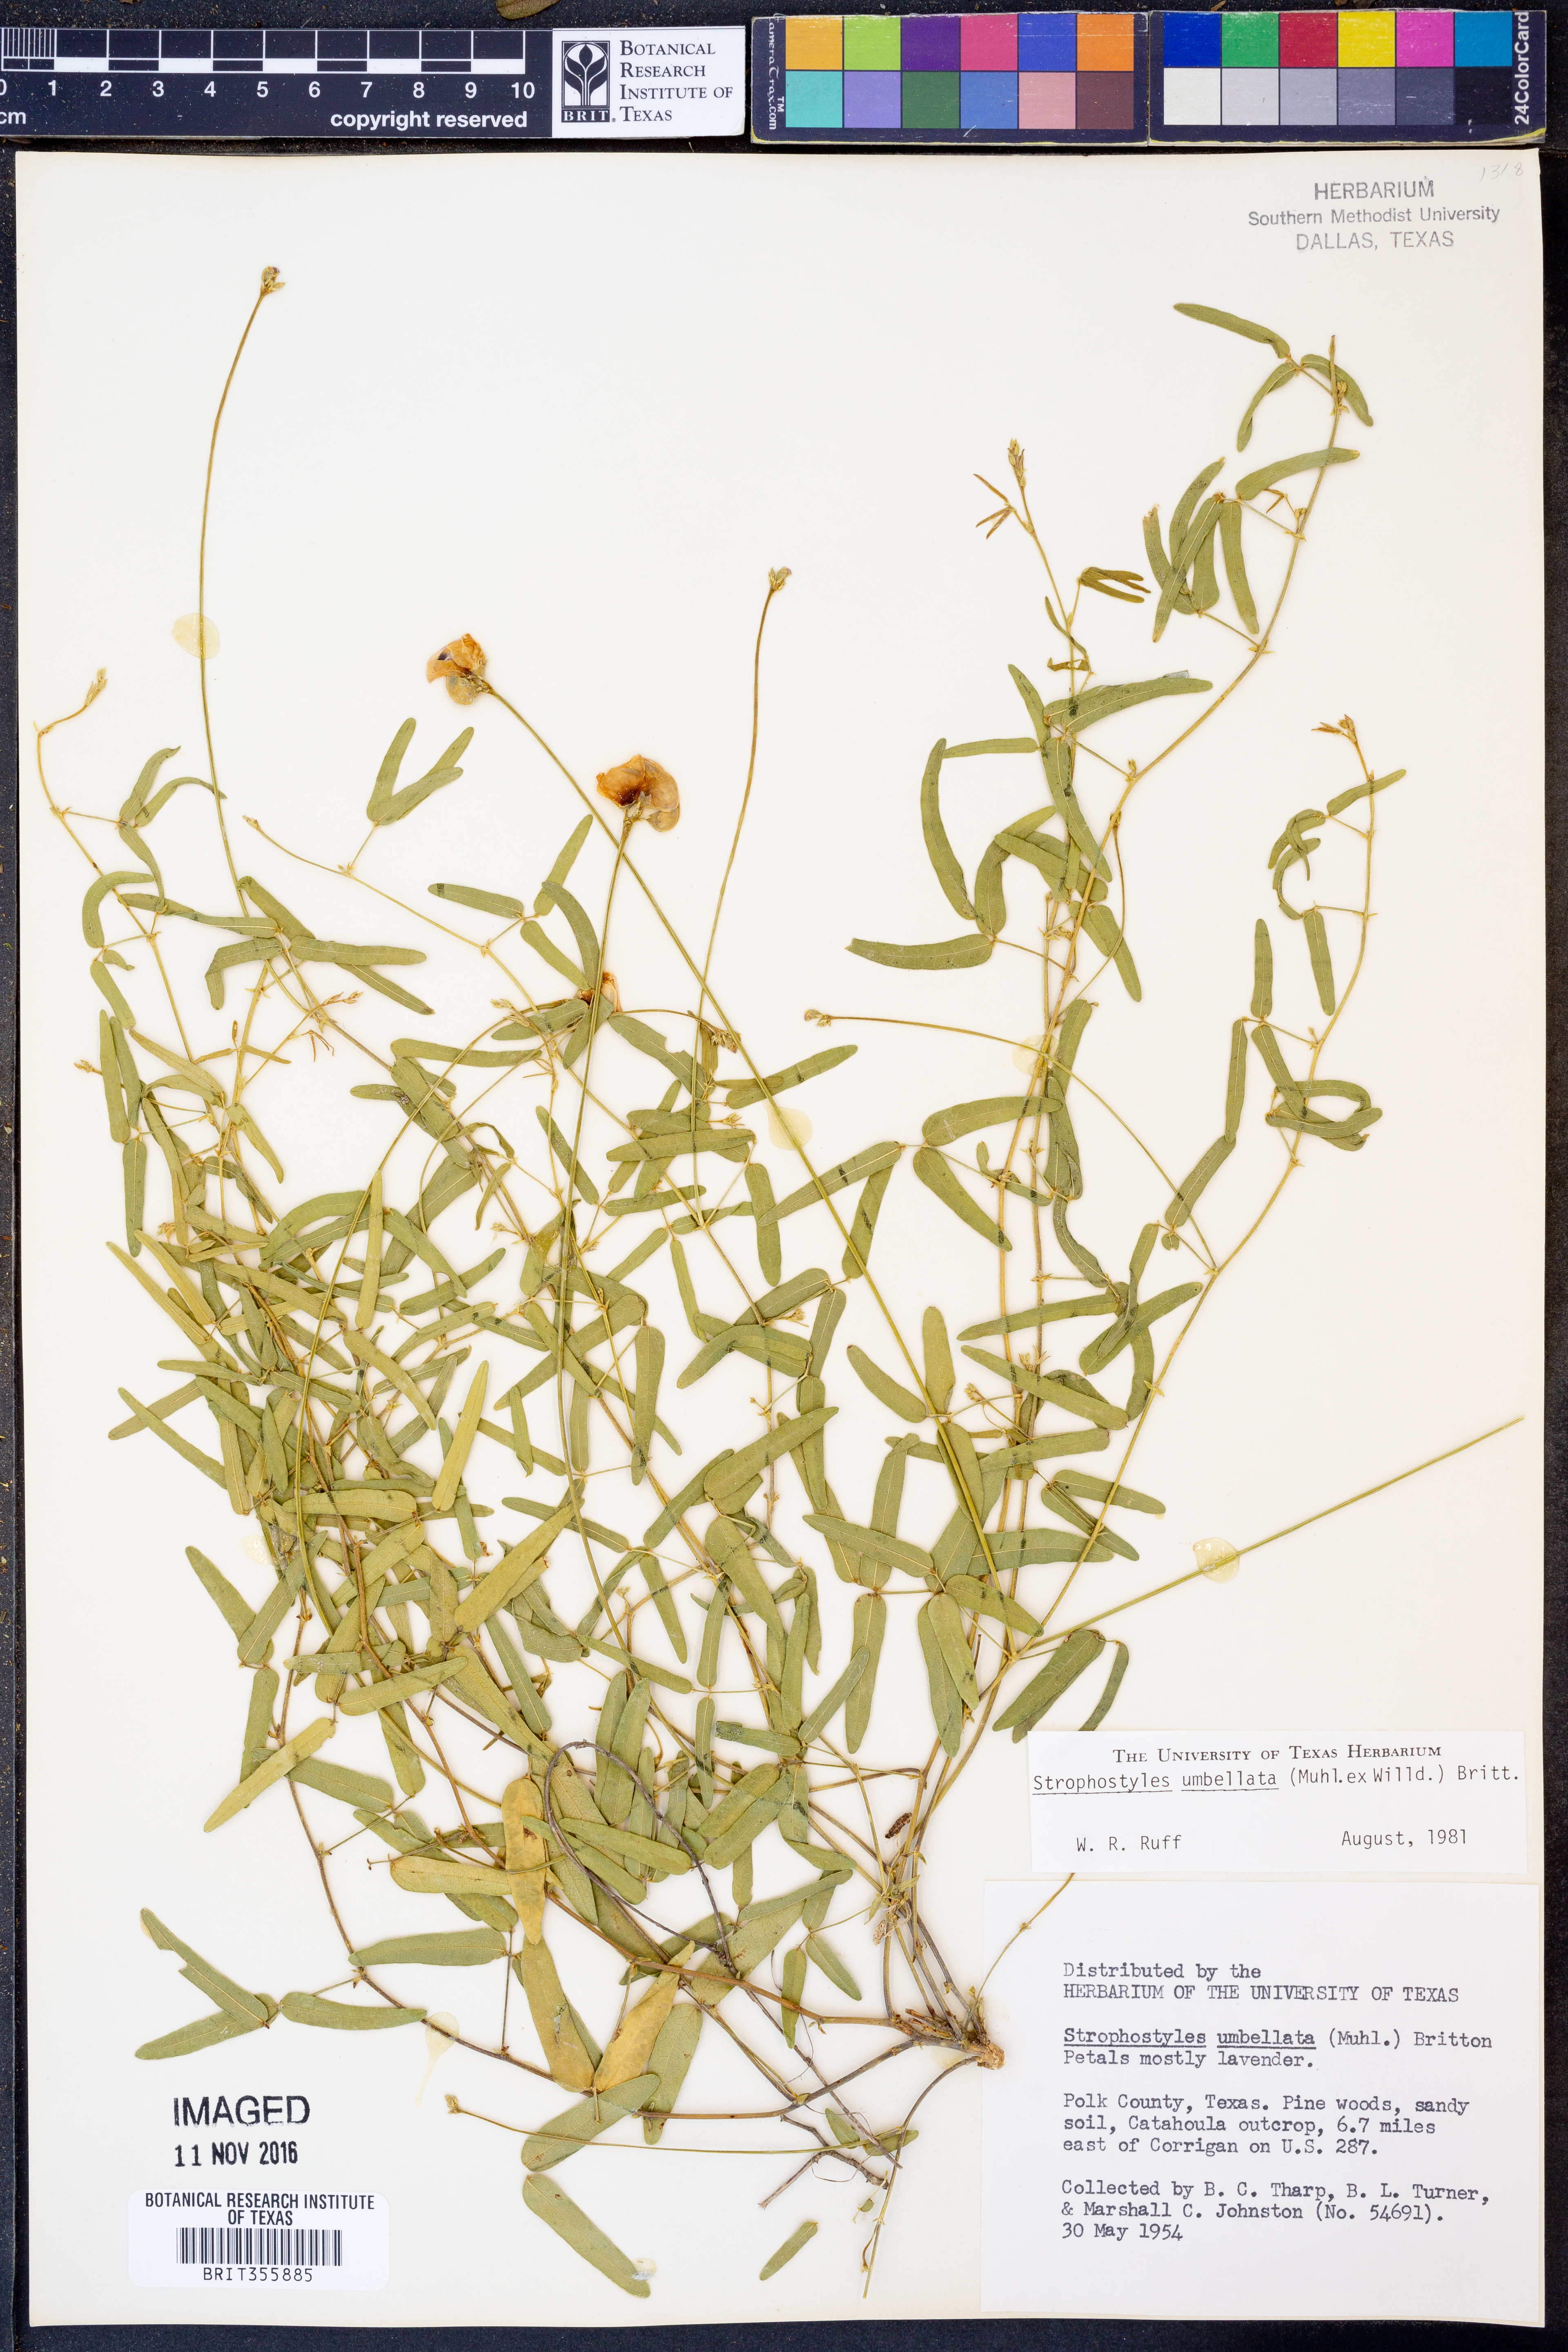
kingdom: Plantae
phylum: Tracheophyta
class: Magnoliopsida
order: Fabales
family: Fabaceae
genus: Strophostyles
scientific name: Strophostyles umbellata
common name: Perennial wild bean
